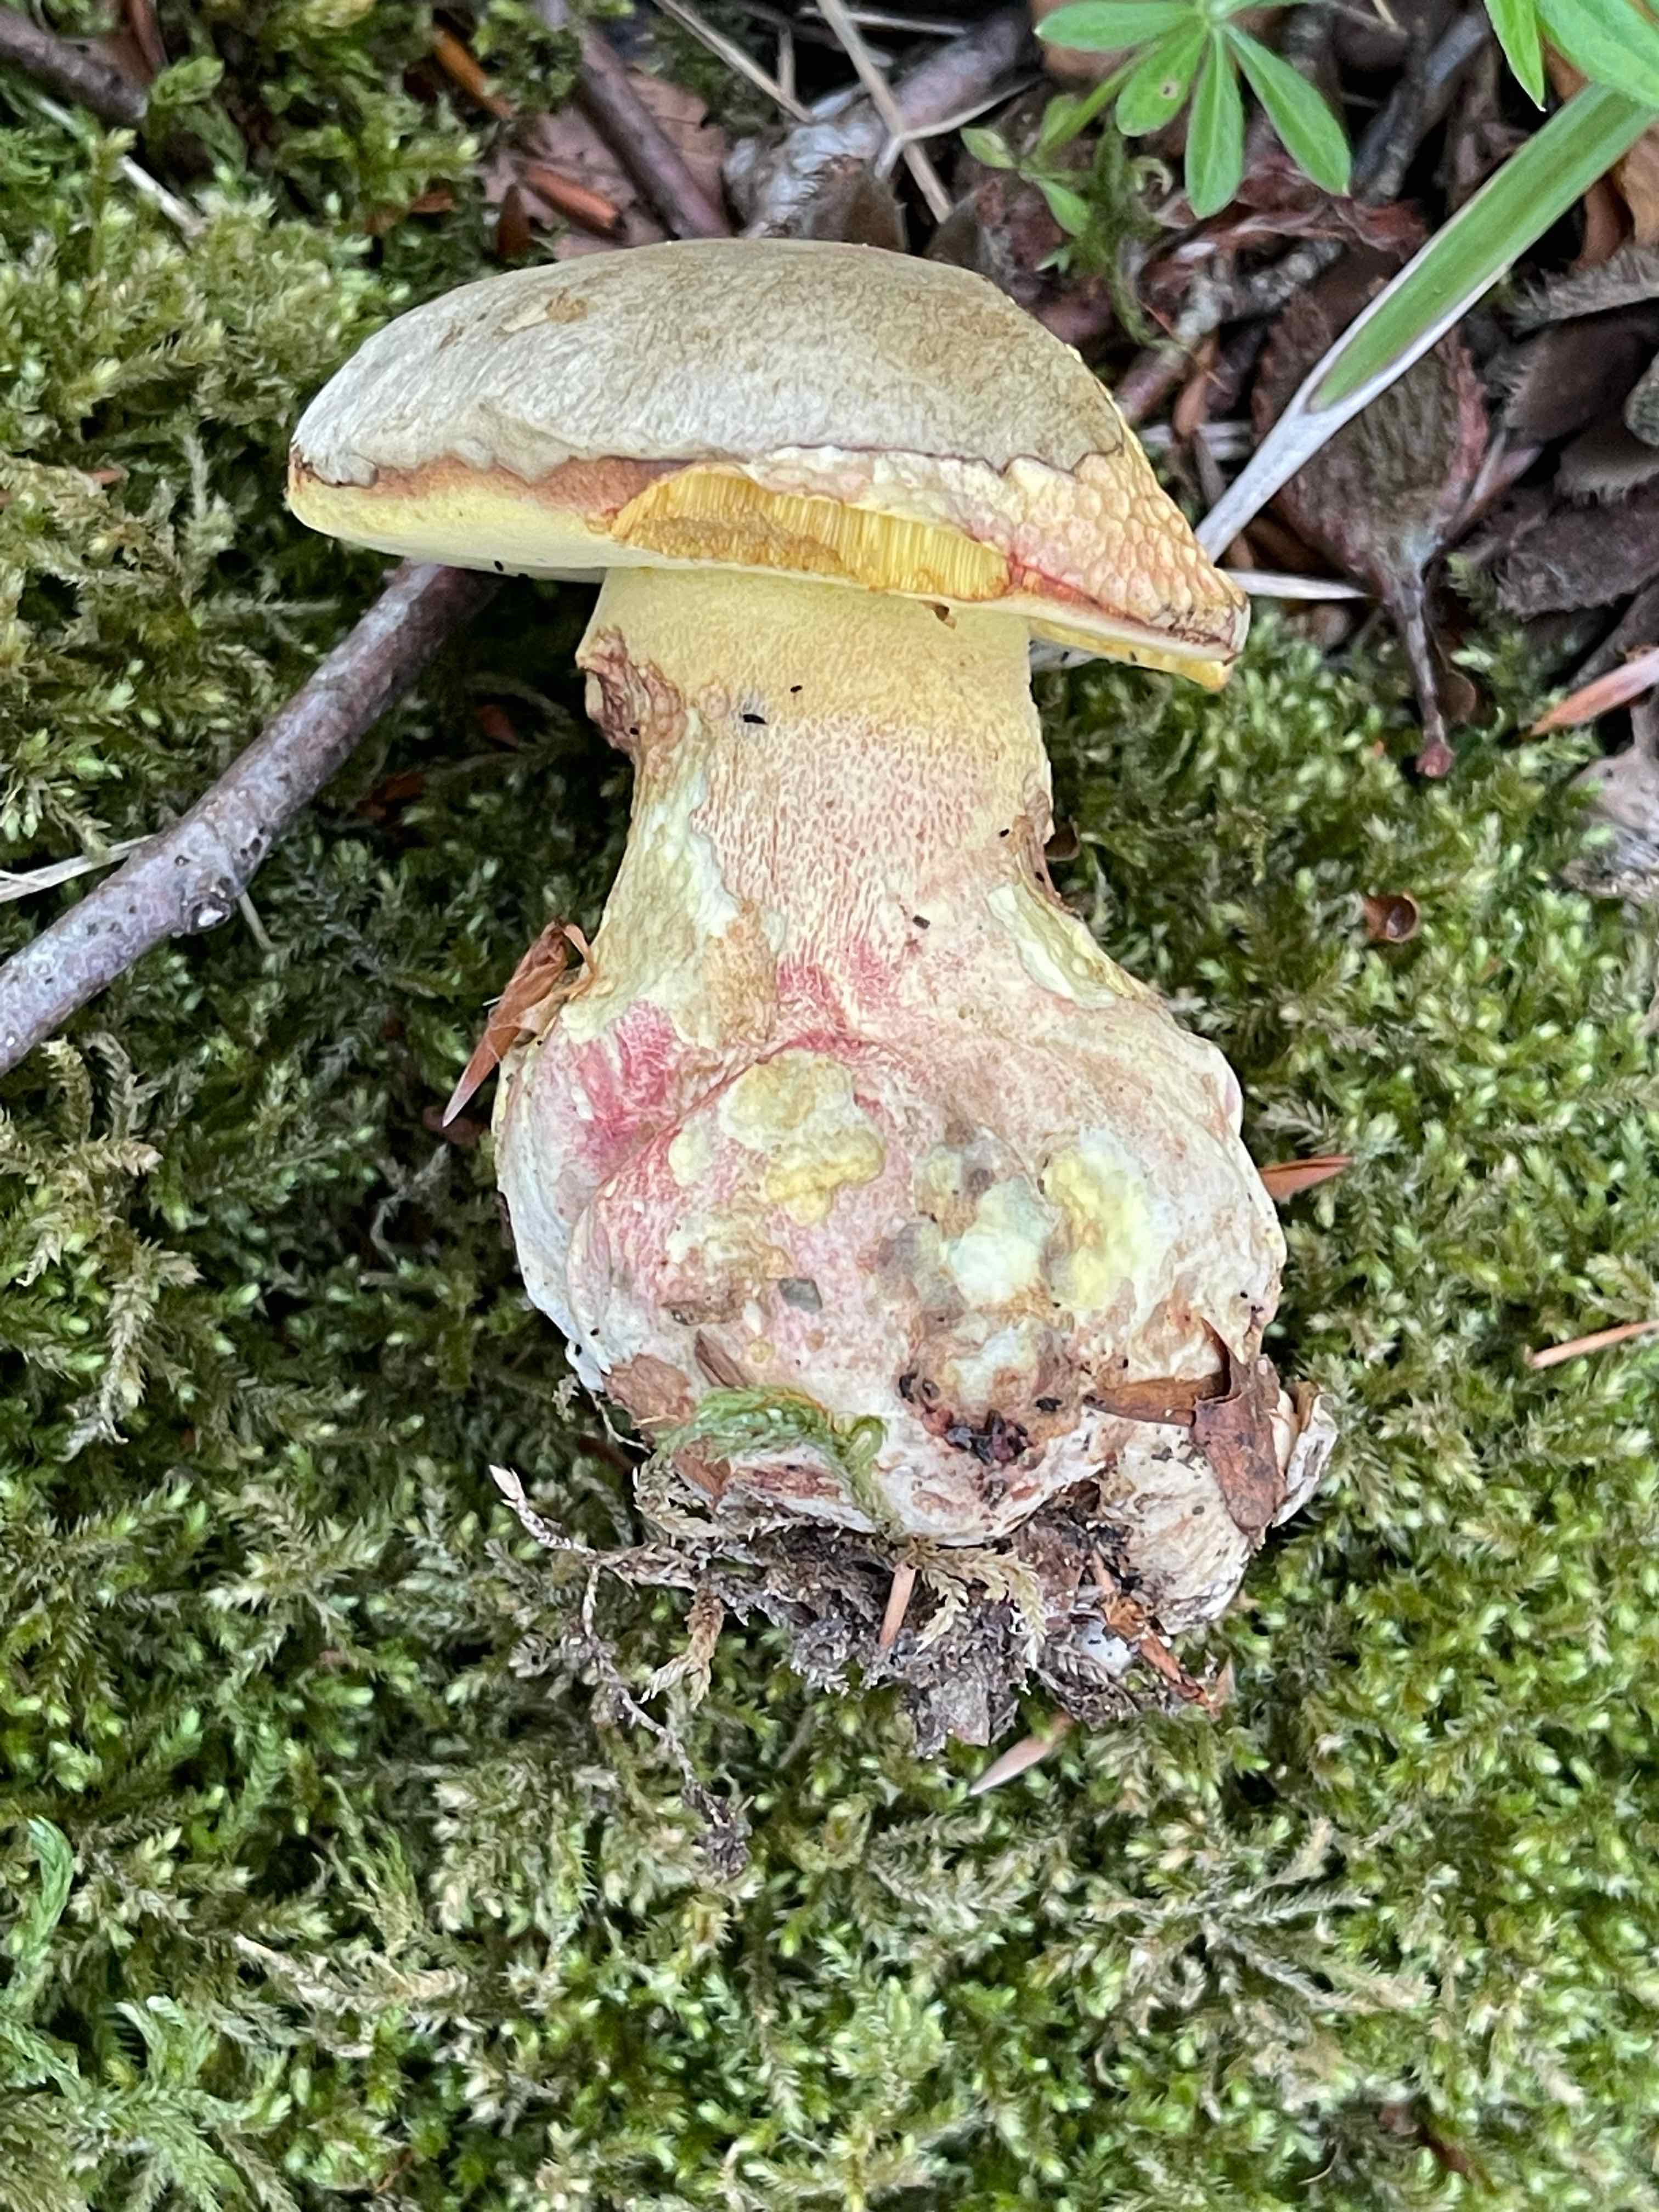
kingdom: Fungi
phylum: Basidiomycota
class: Agaricomycetes
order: Boletales
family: Boletaceae
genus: Rubroboletus
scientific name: Rubroboletus satanas
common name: Satans rørhat
